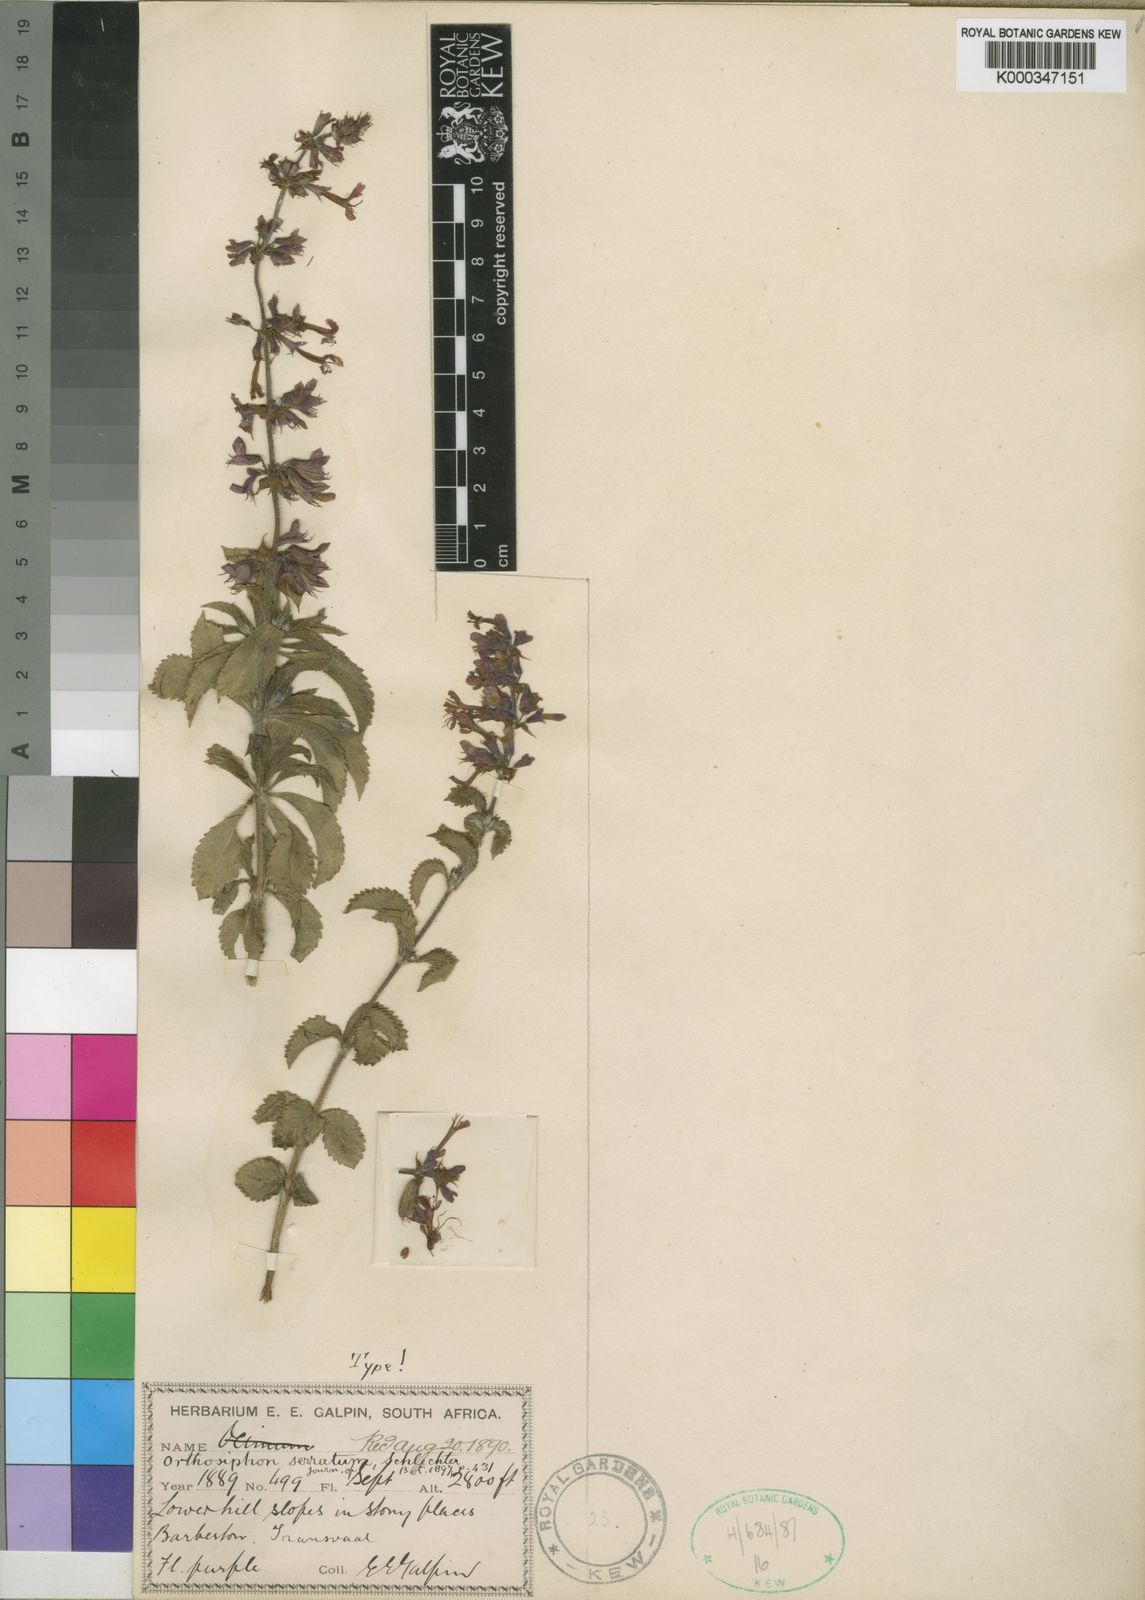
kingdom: Plantae
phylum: Tracheophyta
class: Magnoliopsida
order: Lamiales
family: Lamiaceae
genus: Ocimum
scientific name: Ocimum serratum
